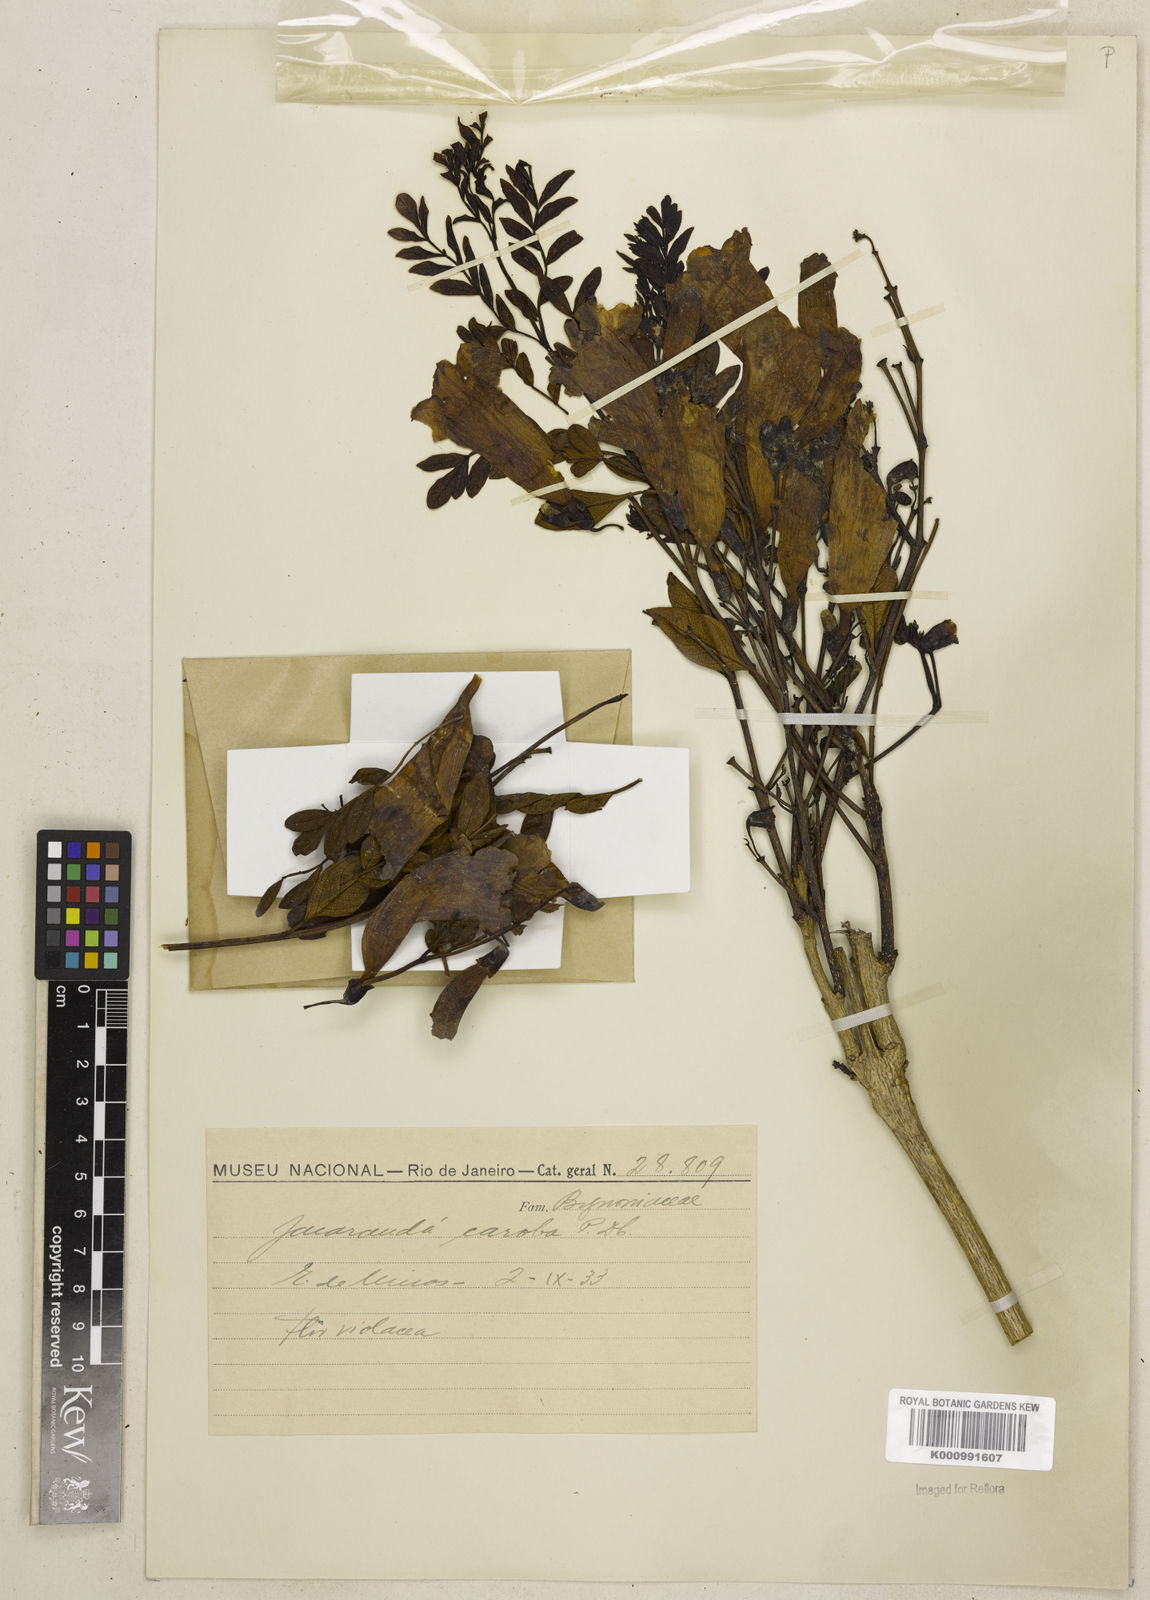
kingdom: Plantae
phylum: Tracheophyta
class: Magnoliopsida
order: Lamiales
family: Bignoniaceae
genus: Jacaranda
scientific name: Jacaranda caroba
